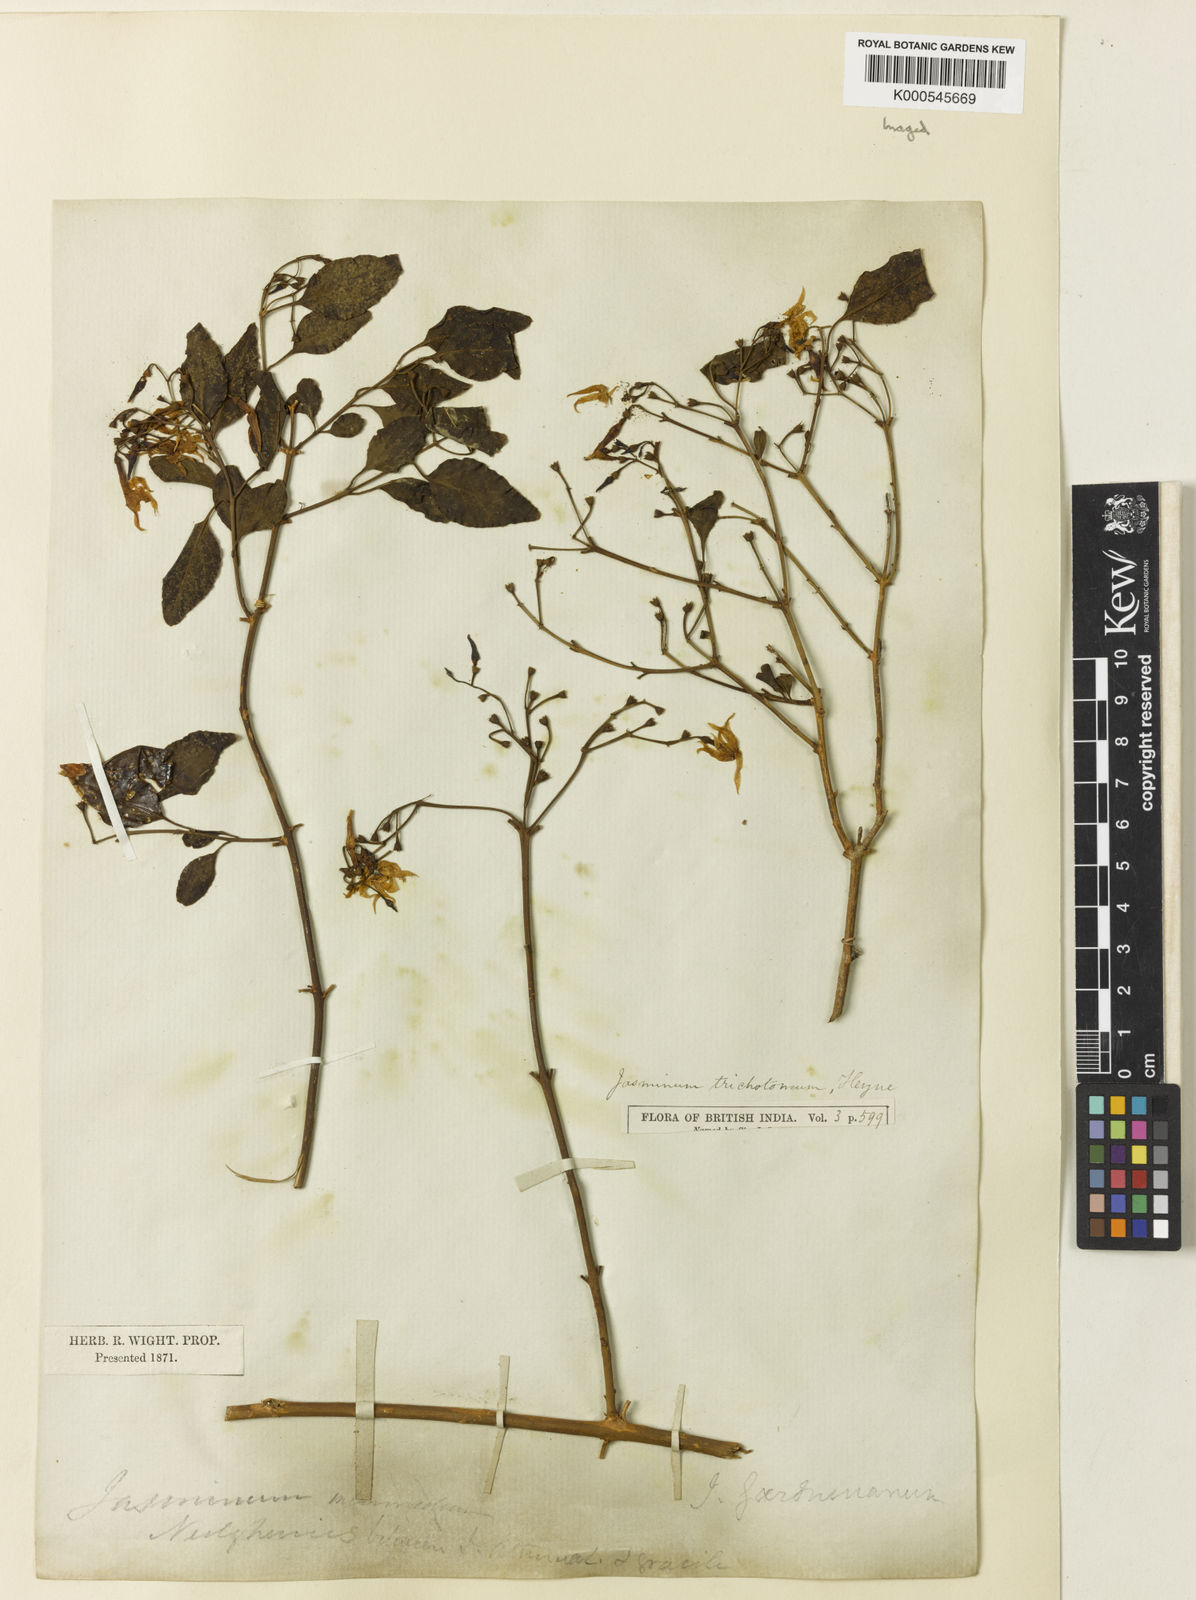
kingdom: Plantae
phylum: Tracheophyta
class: Magnoliopsida
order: Lamiales
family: Oleaceae
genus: Jasminum
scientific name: Jasminum trichotomum
